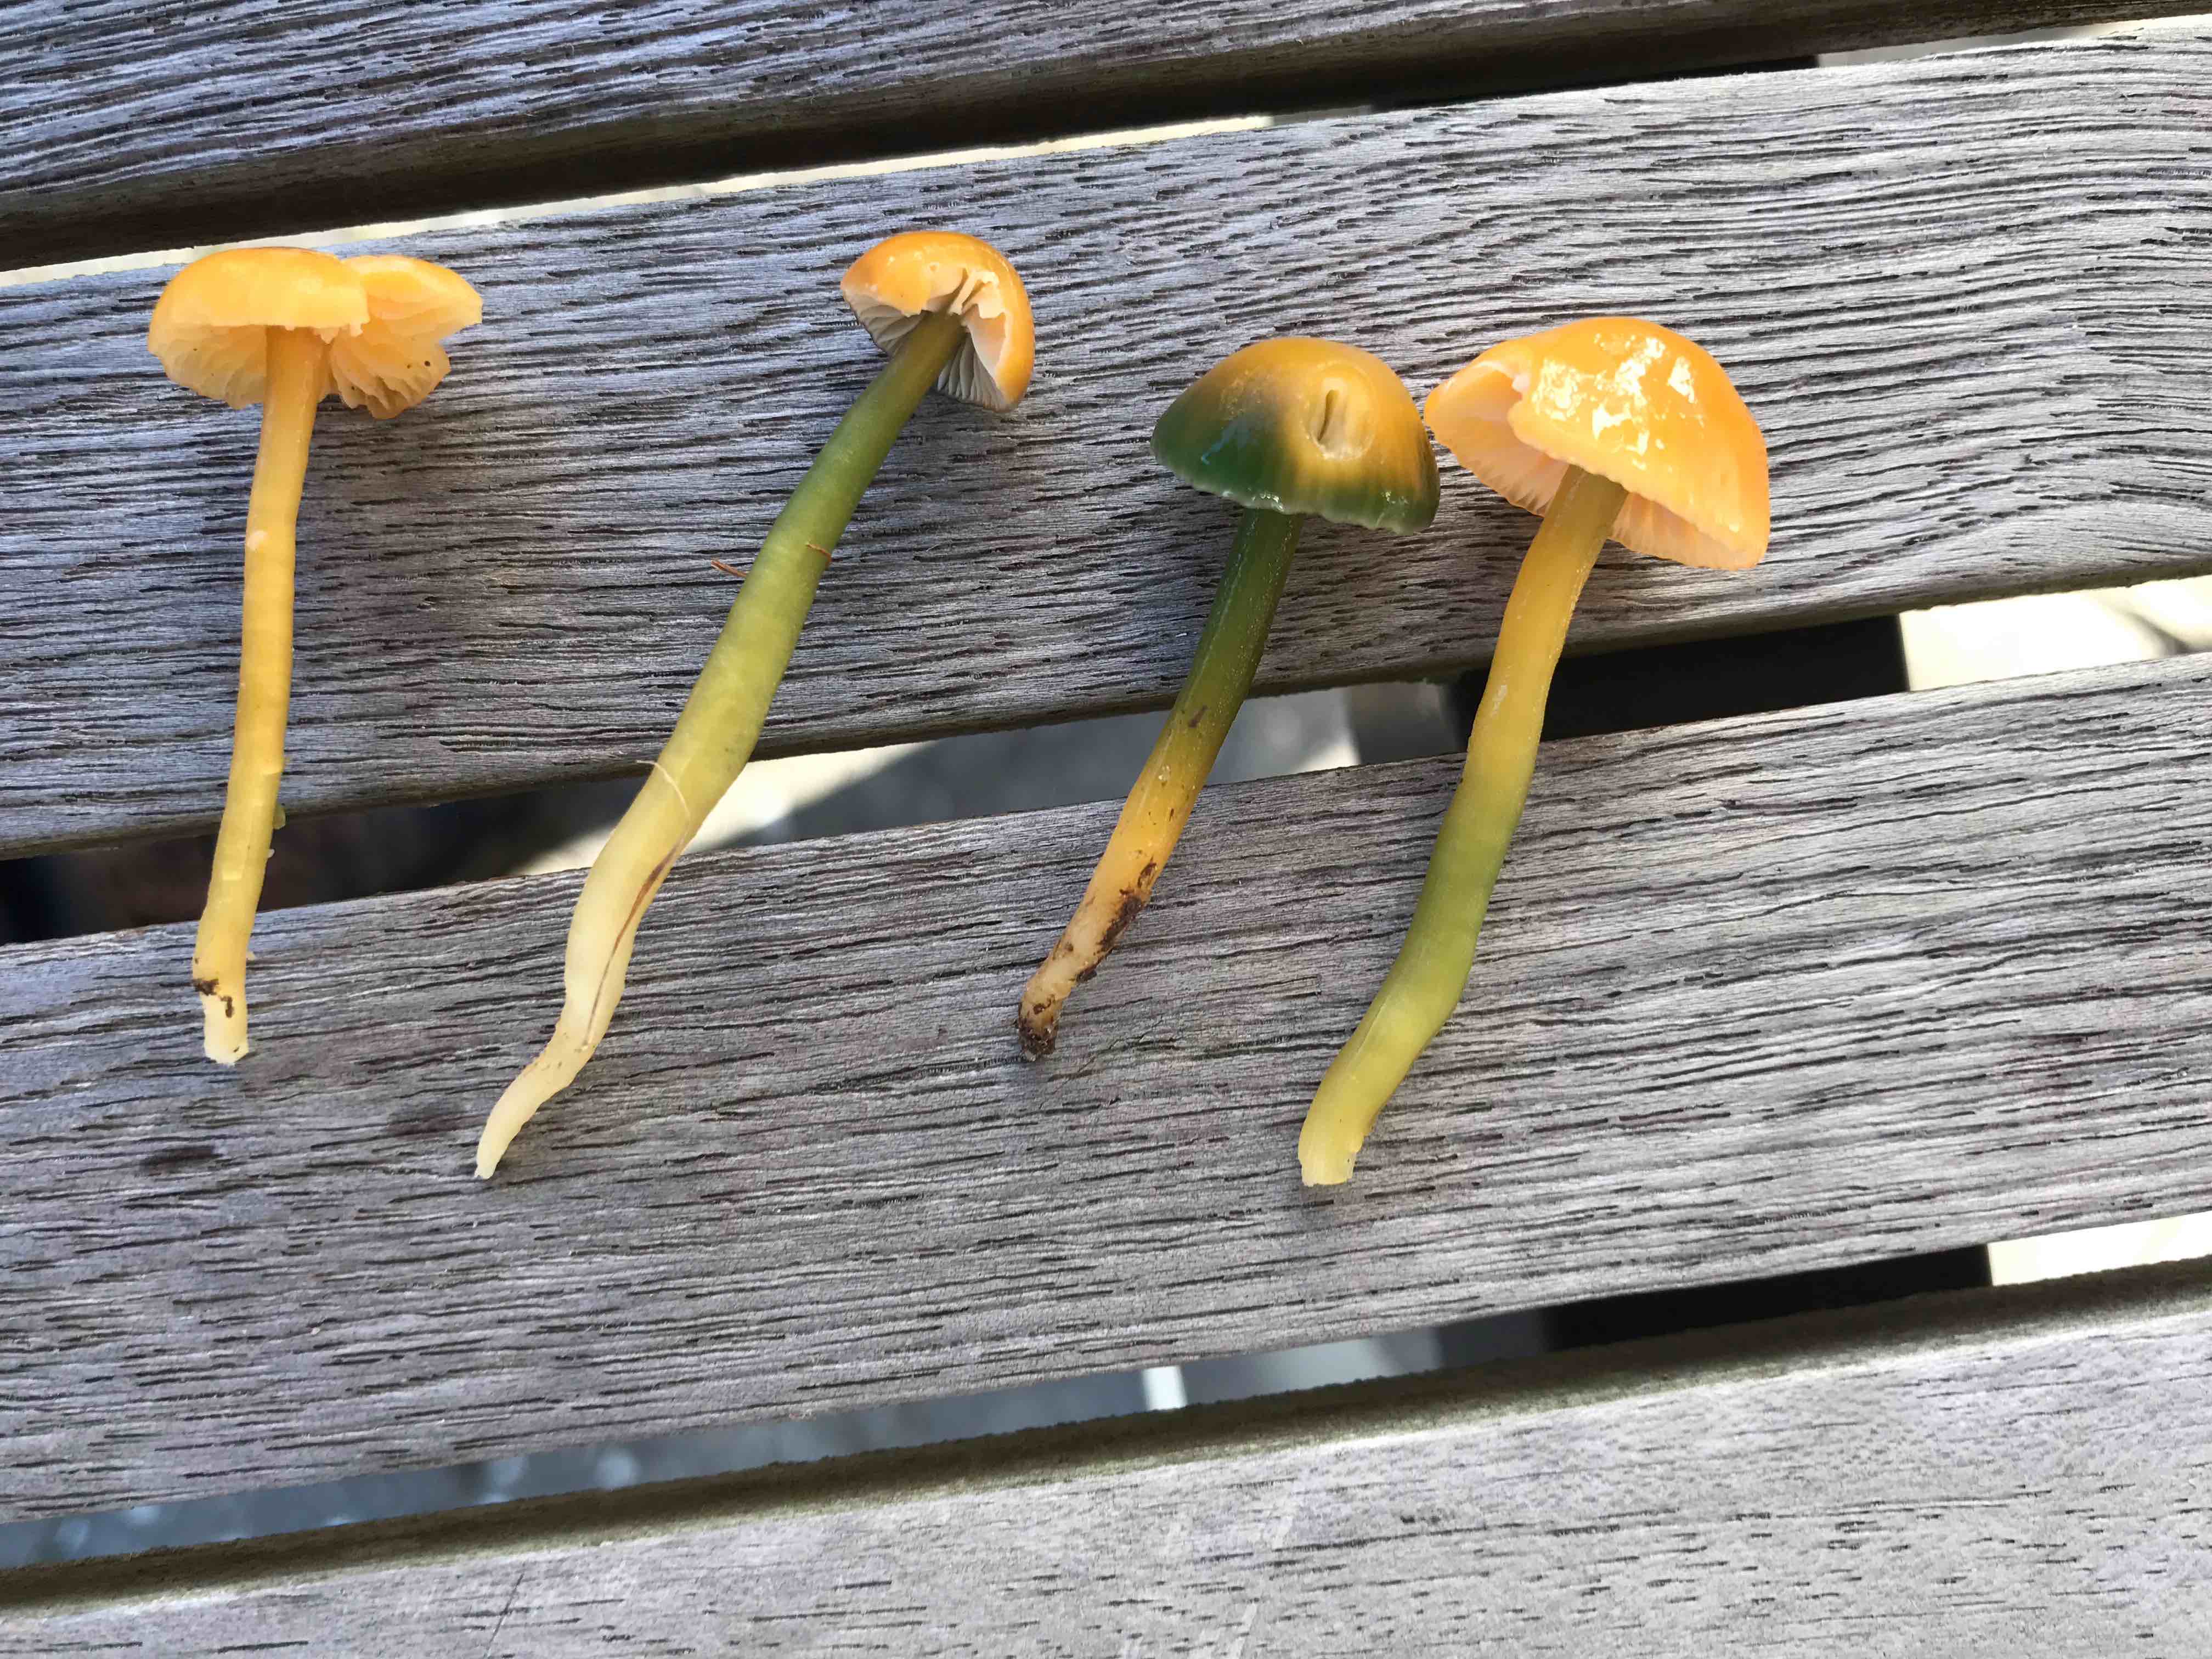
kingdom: Fungi
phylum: Basidiomycota
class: Agaricomycetes
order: Agaricales
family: Hygrophoraceae
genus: Gliophorus
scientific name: Gliophorus psittacinus
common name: papegøje-vokshat
